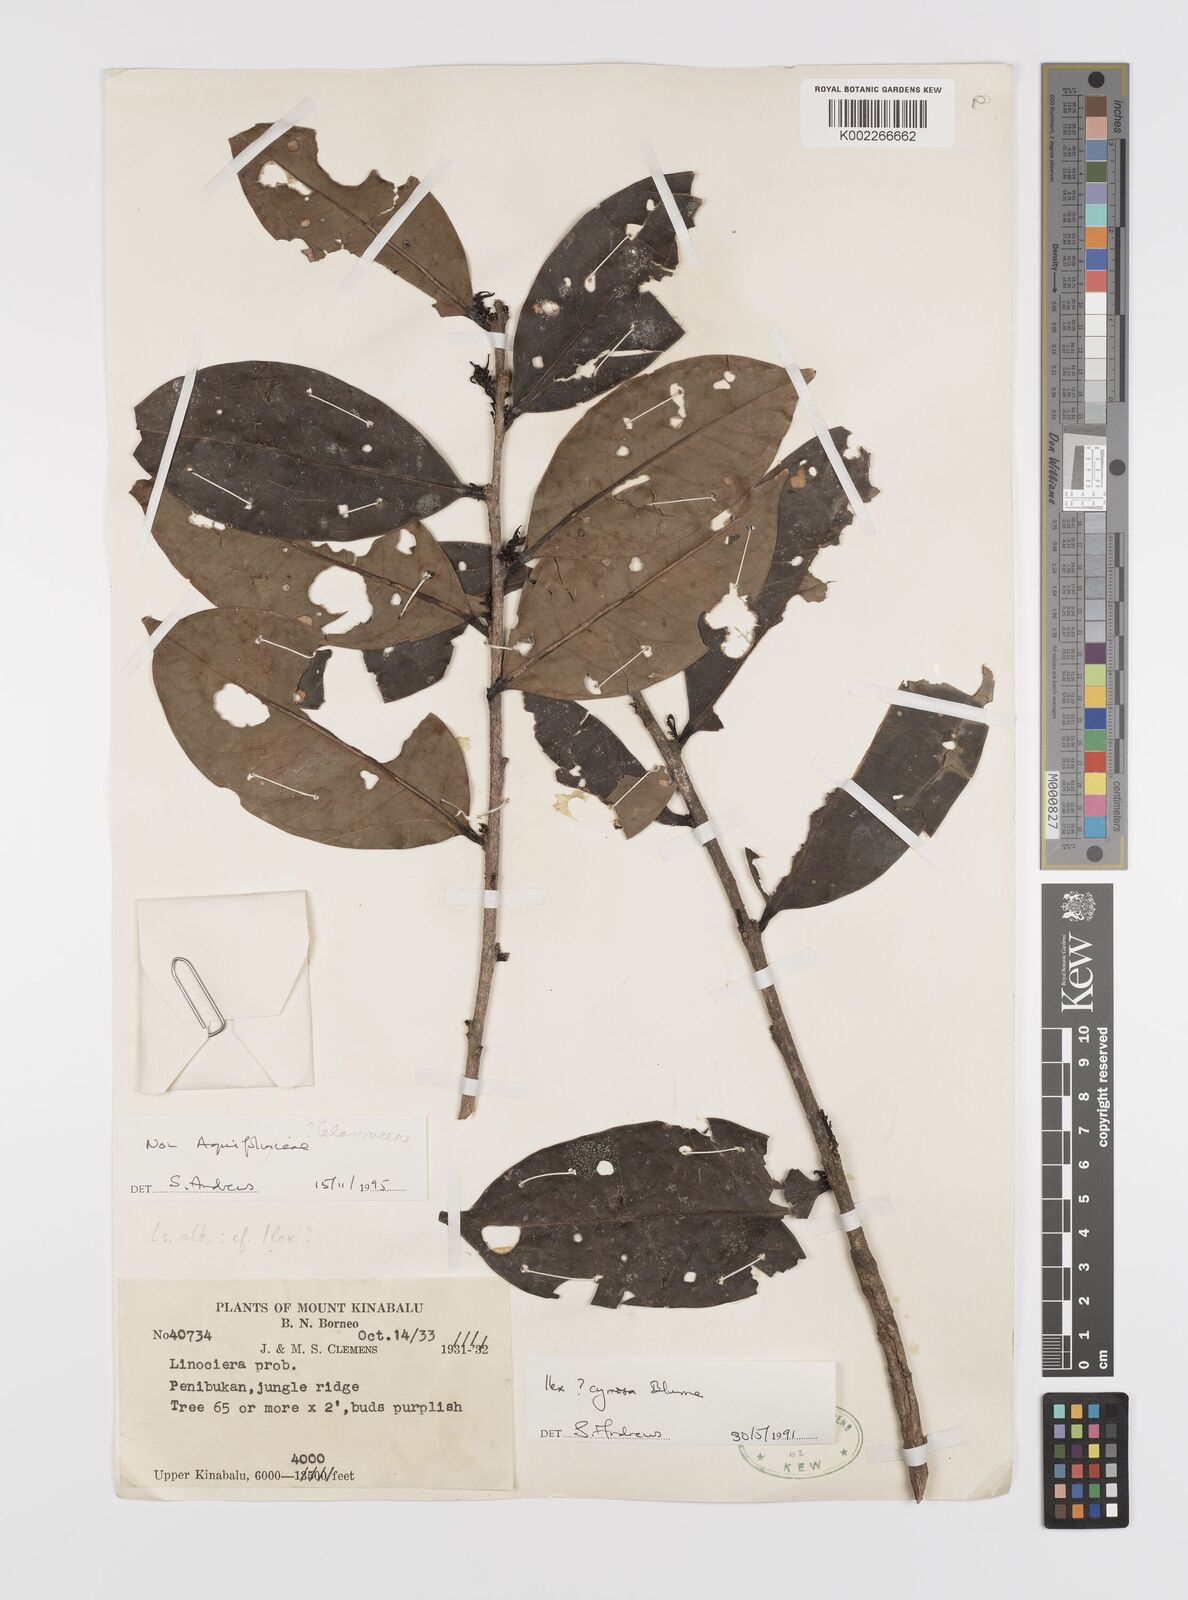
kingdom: Plantae
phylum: Tracheophyta
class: Magnoliopsida
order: Celastrales
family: Celastraceae
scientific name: Celastraceae
